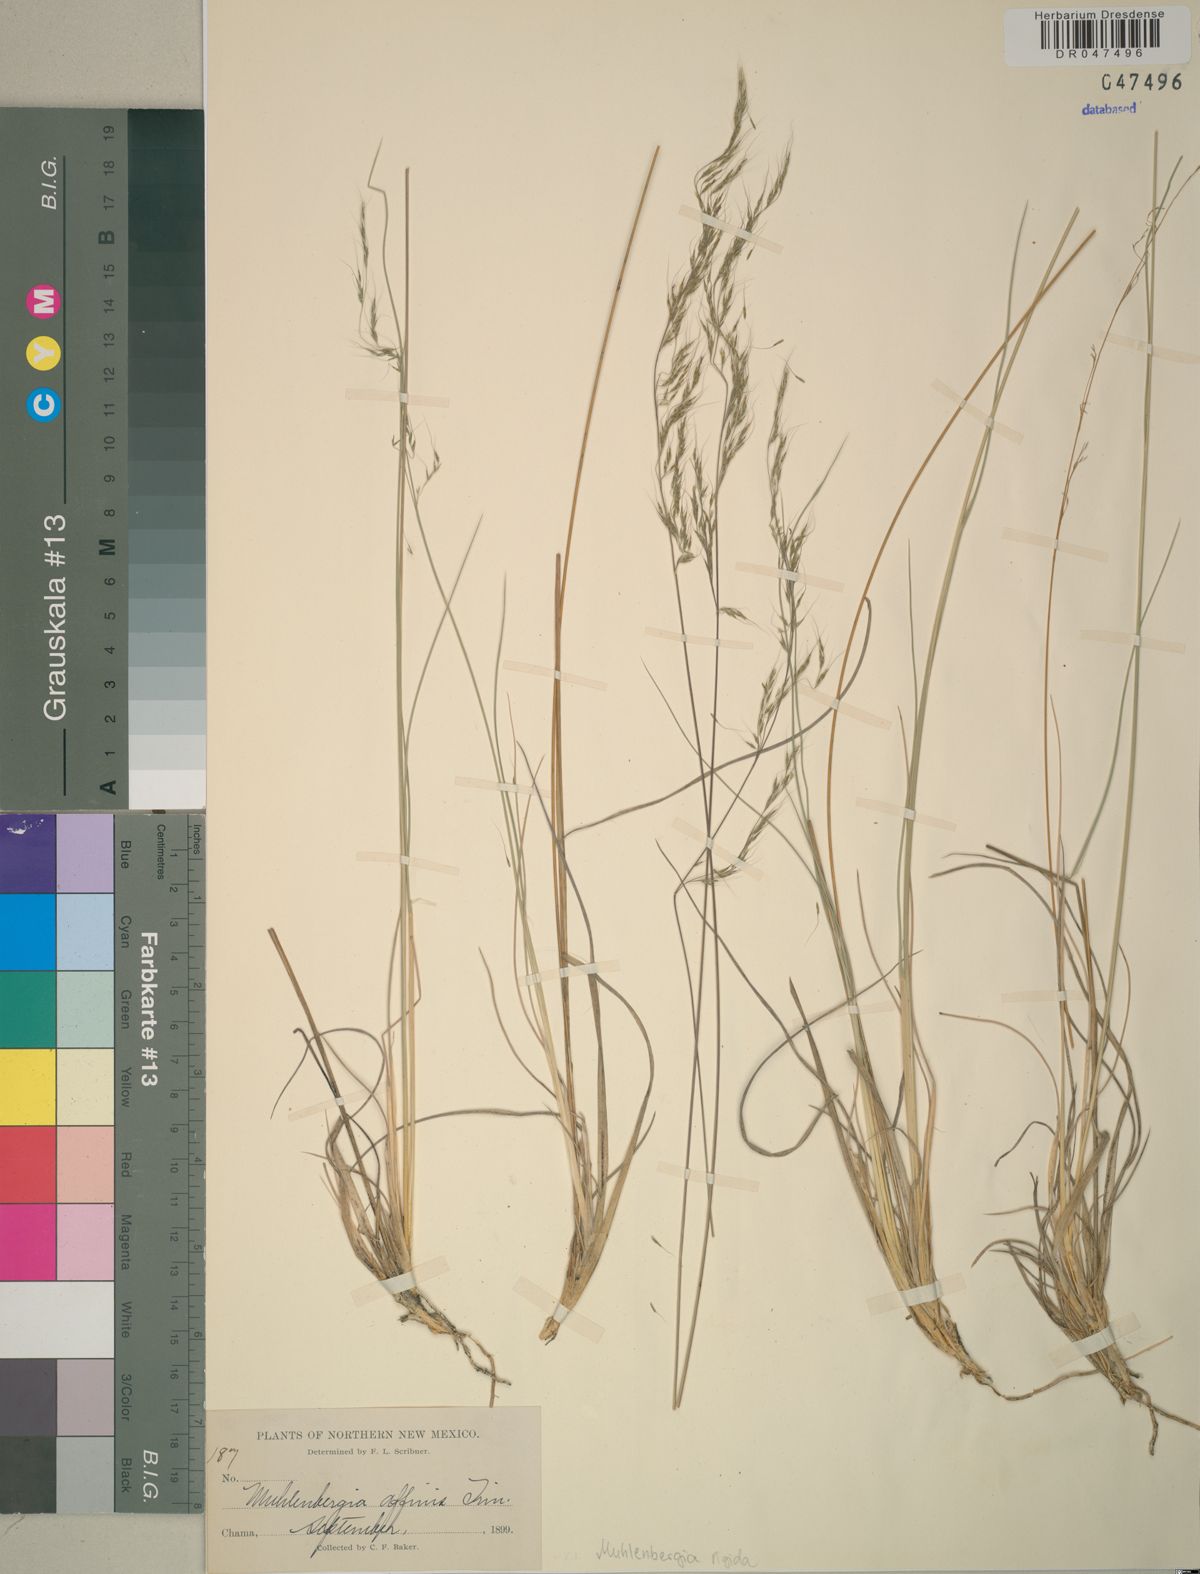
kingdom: Plantae
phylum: Tracheophyta
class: Liliopsida
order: Poales
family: Poaceae
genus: Muhlenbergia
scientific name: Muhlenbergia rigida
